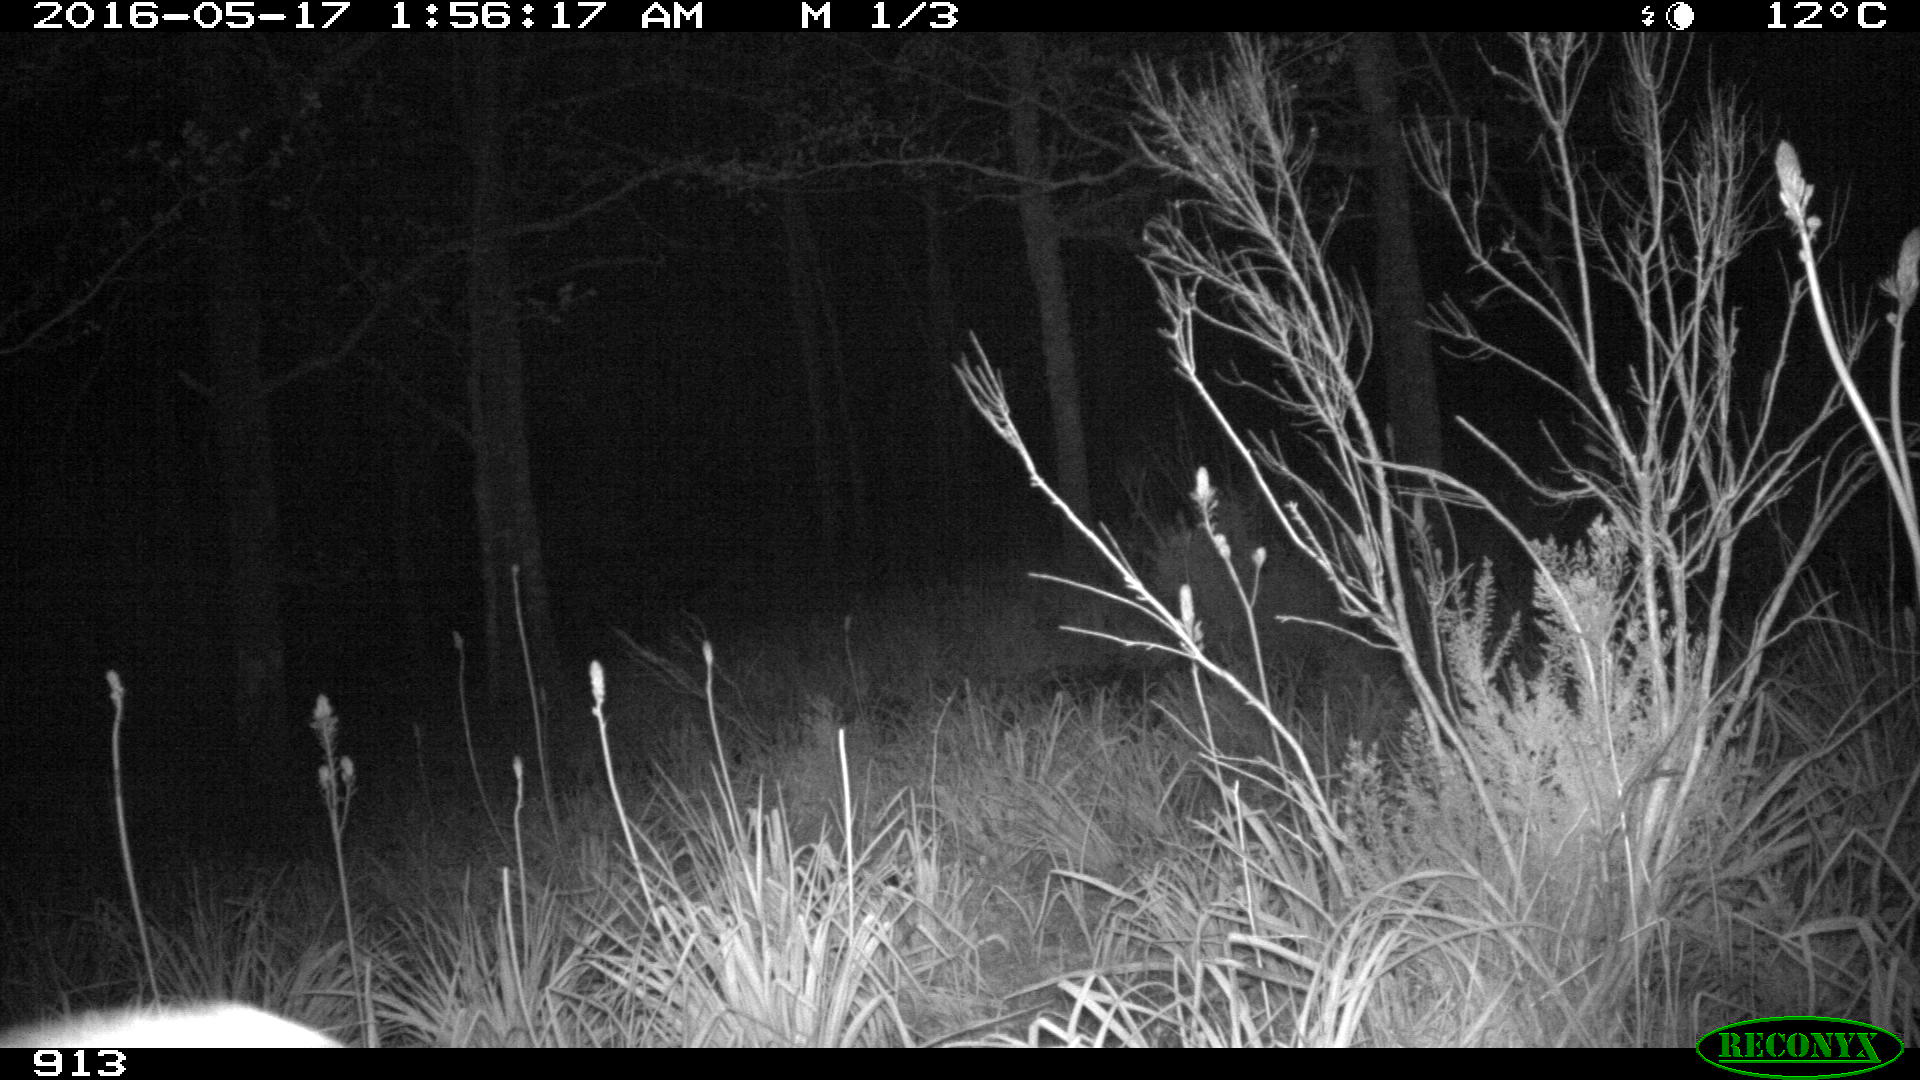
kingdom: Animalia
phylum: Chordata
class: Mammalia
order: Artiodactyla
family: Bovidae
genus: Bos
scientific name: Bos taurus
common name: Domesticated cattle
